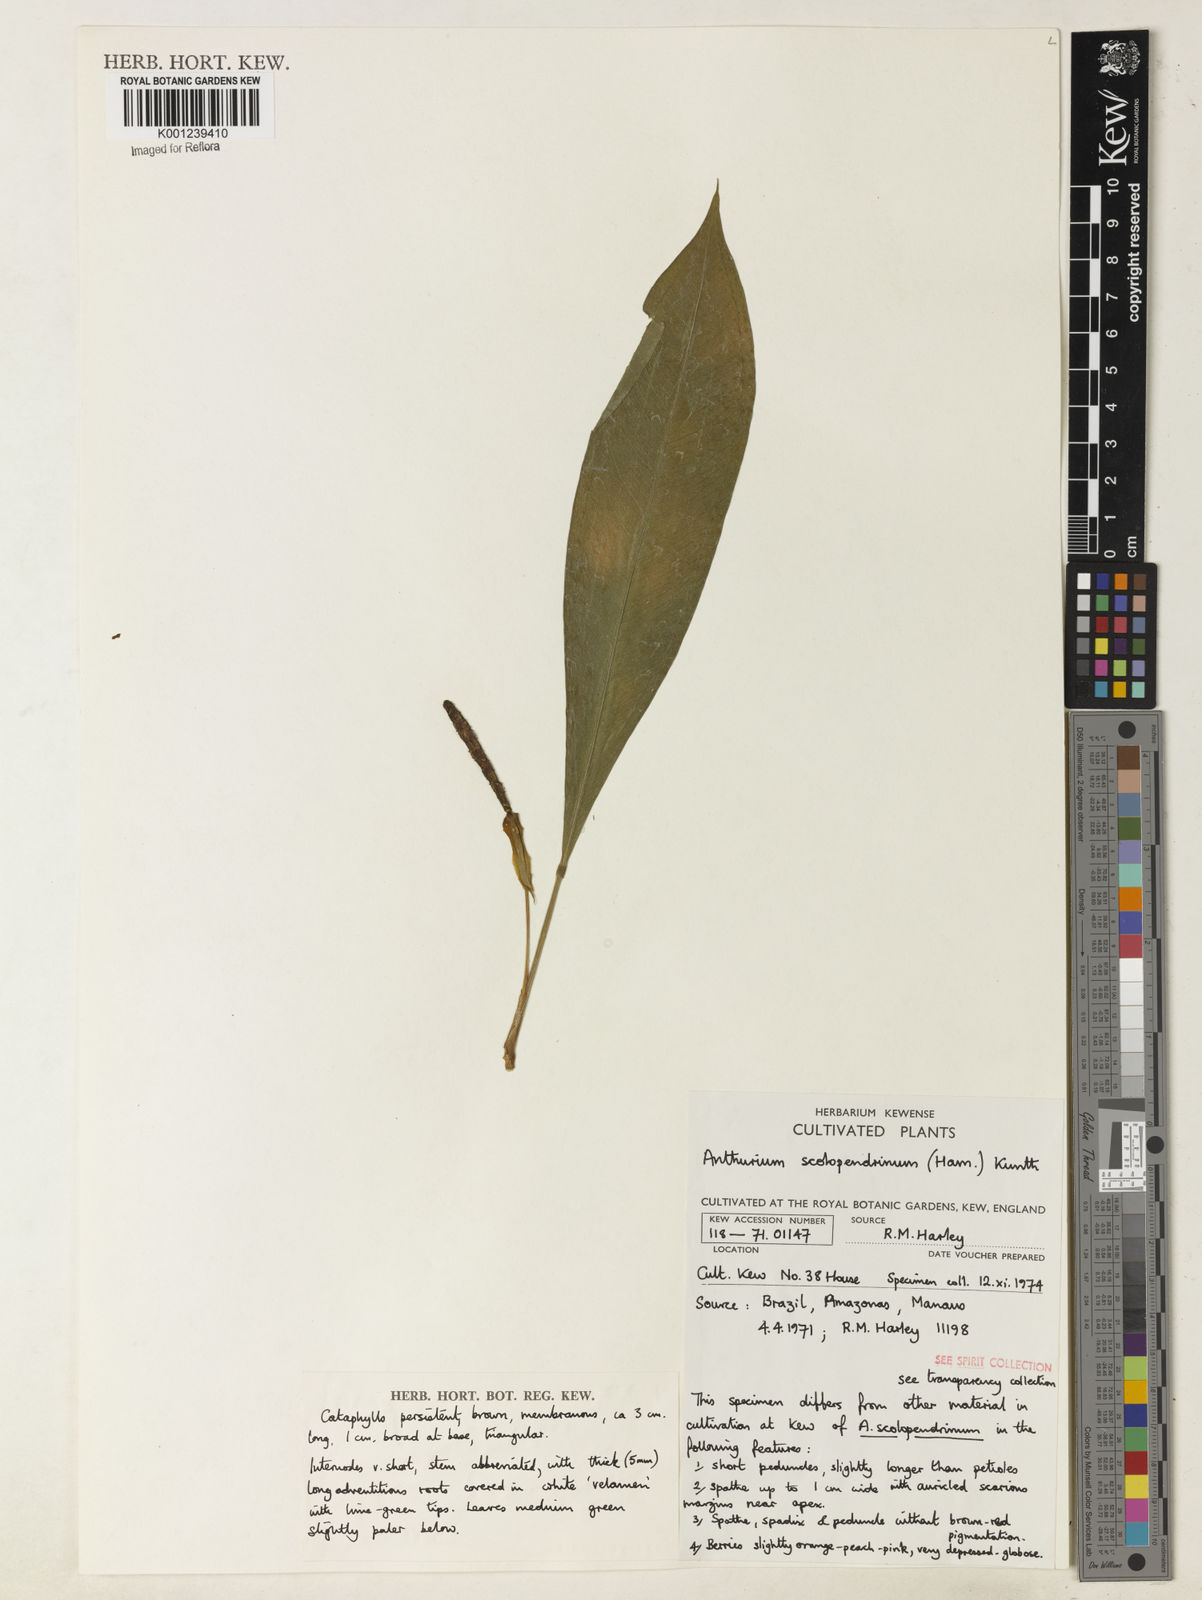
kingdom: Plantae
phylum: Tracheophyta
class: Liliopsida
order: Alismatales
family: Araceae
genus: Anthurium
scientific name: Anthurium gracile
